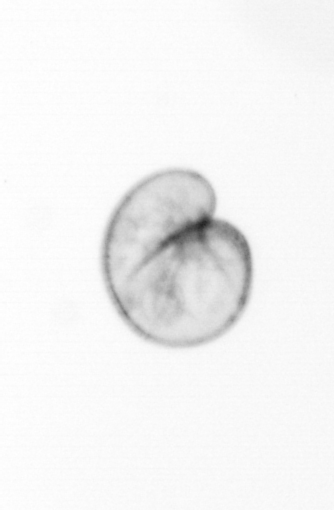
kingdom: Chromista
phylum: Myzozoa
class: Dinophyceae
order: Noctilucales
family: Noctilucaceae
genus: Noctiluca
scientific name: Noctiluca scintillans
